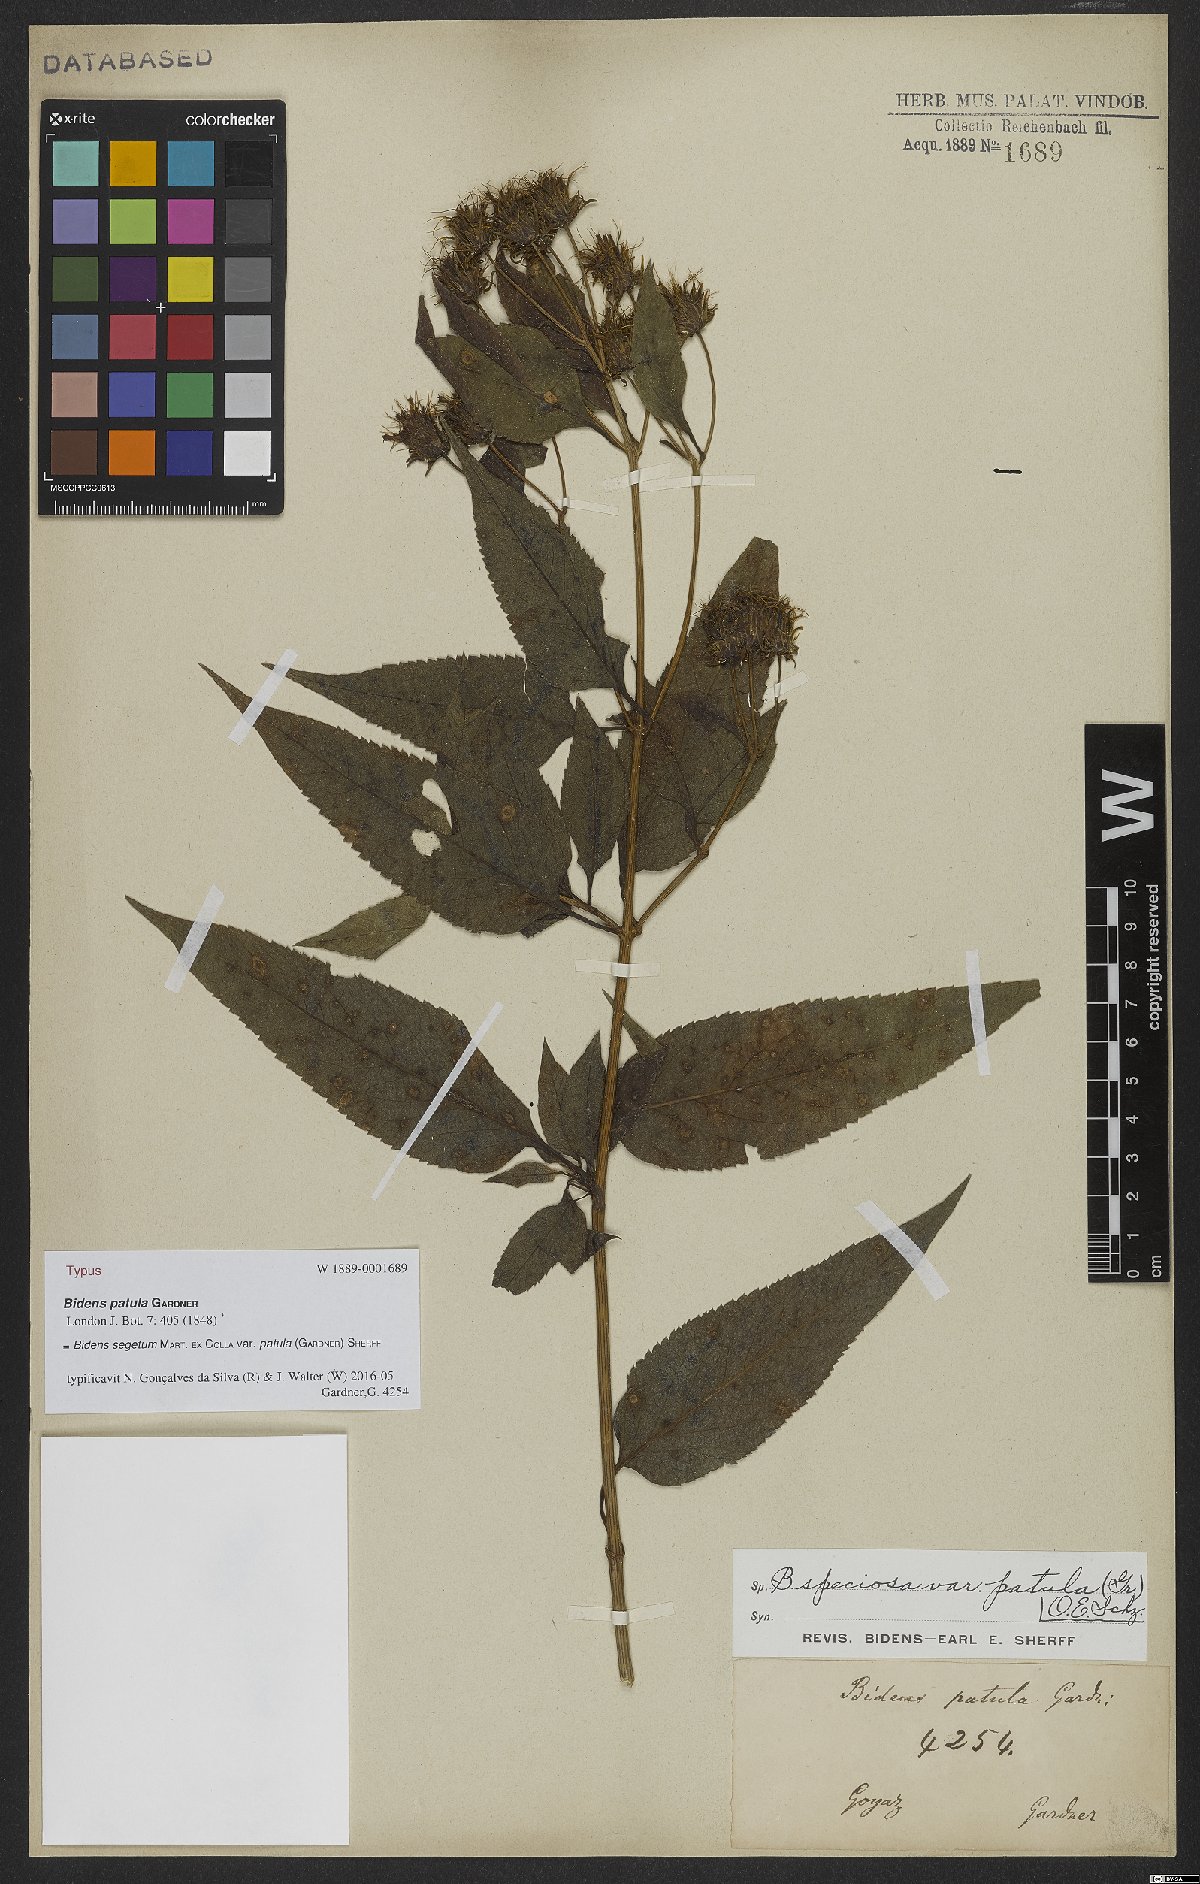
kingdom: Plantae
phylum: Tracheophyta
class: Magnoliopsida
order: Asterales
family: Asteraceae
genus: Bidens
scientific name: Bidens segetum
